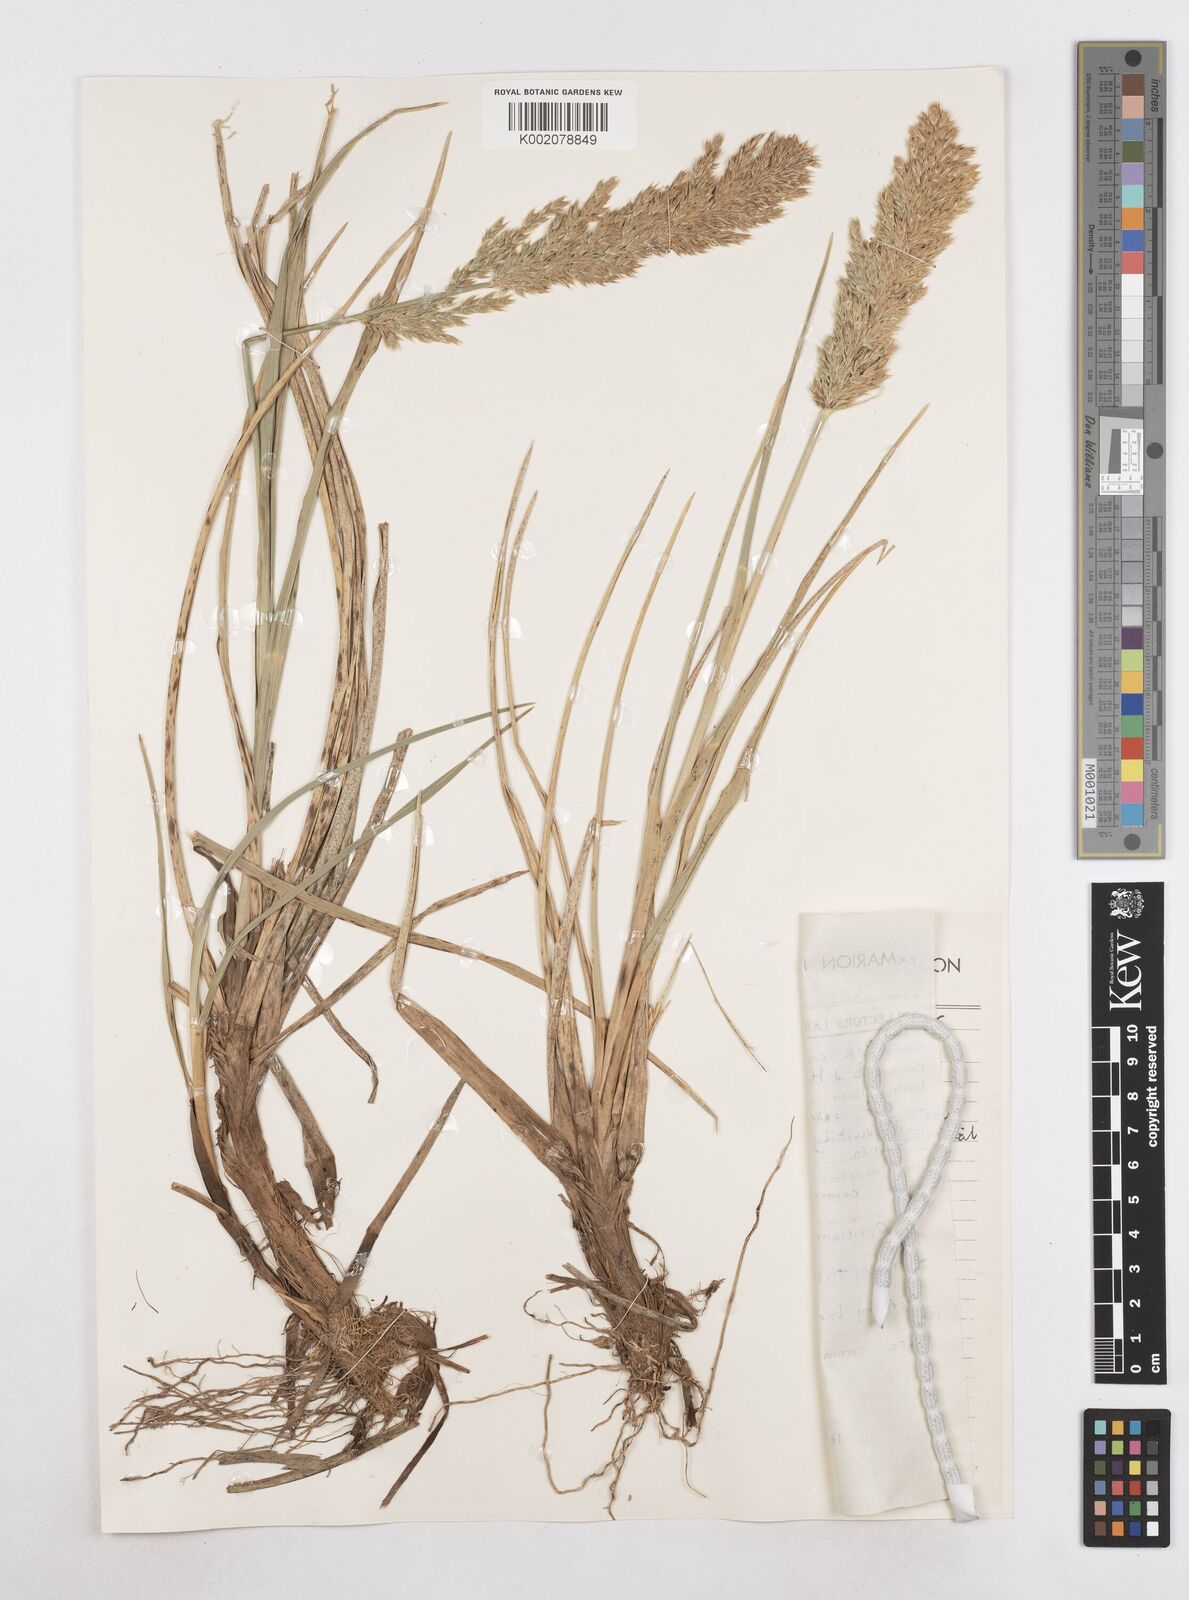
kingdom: Plantae
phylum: Tracheophyta
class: Liliopsida
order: Poales
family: Poaceae
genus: Poa
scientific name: Poa cookii
